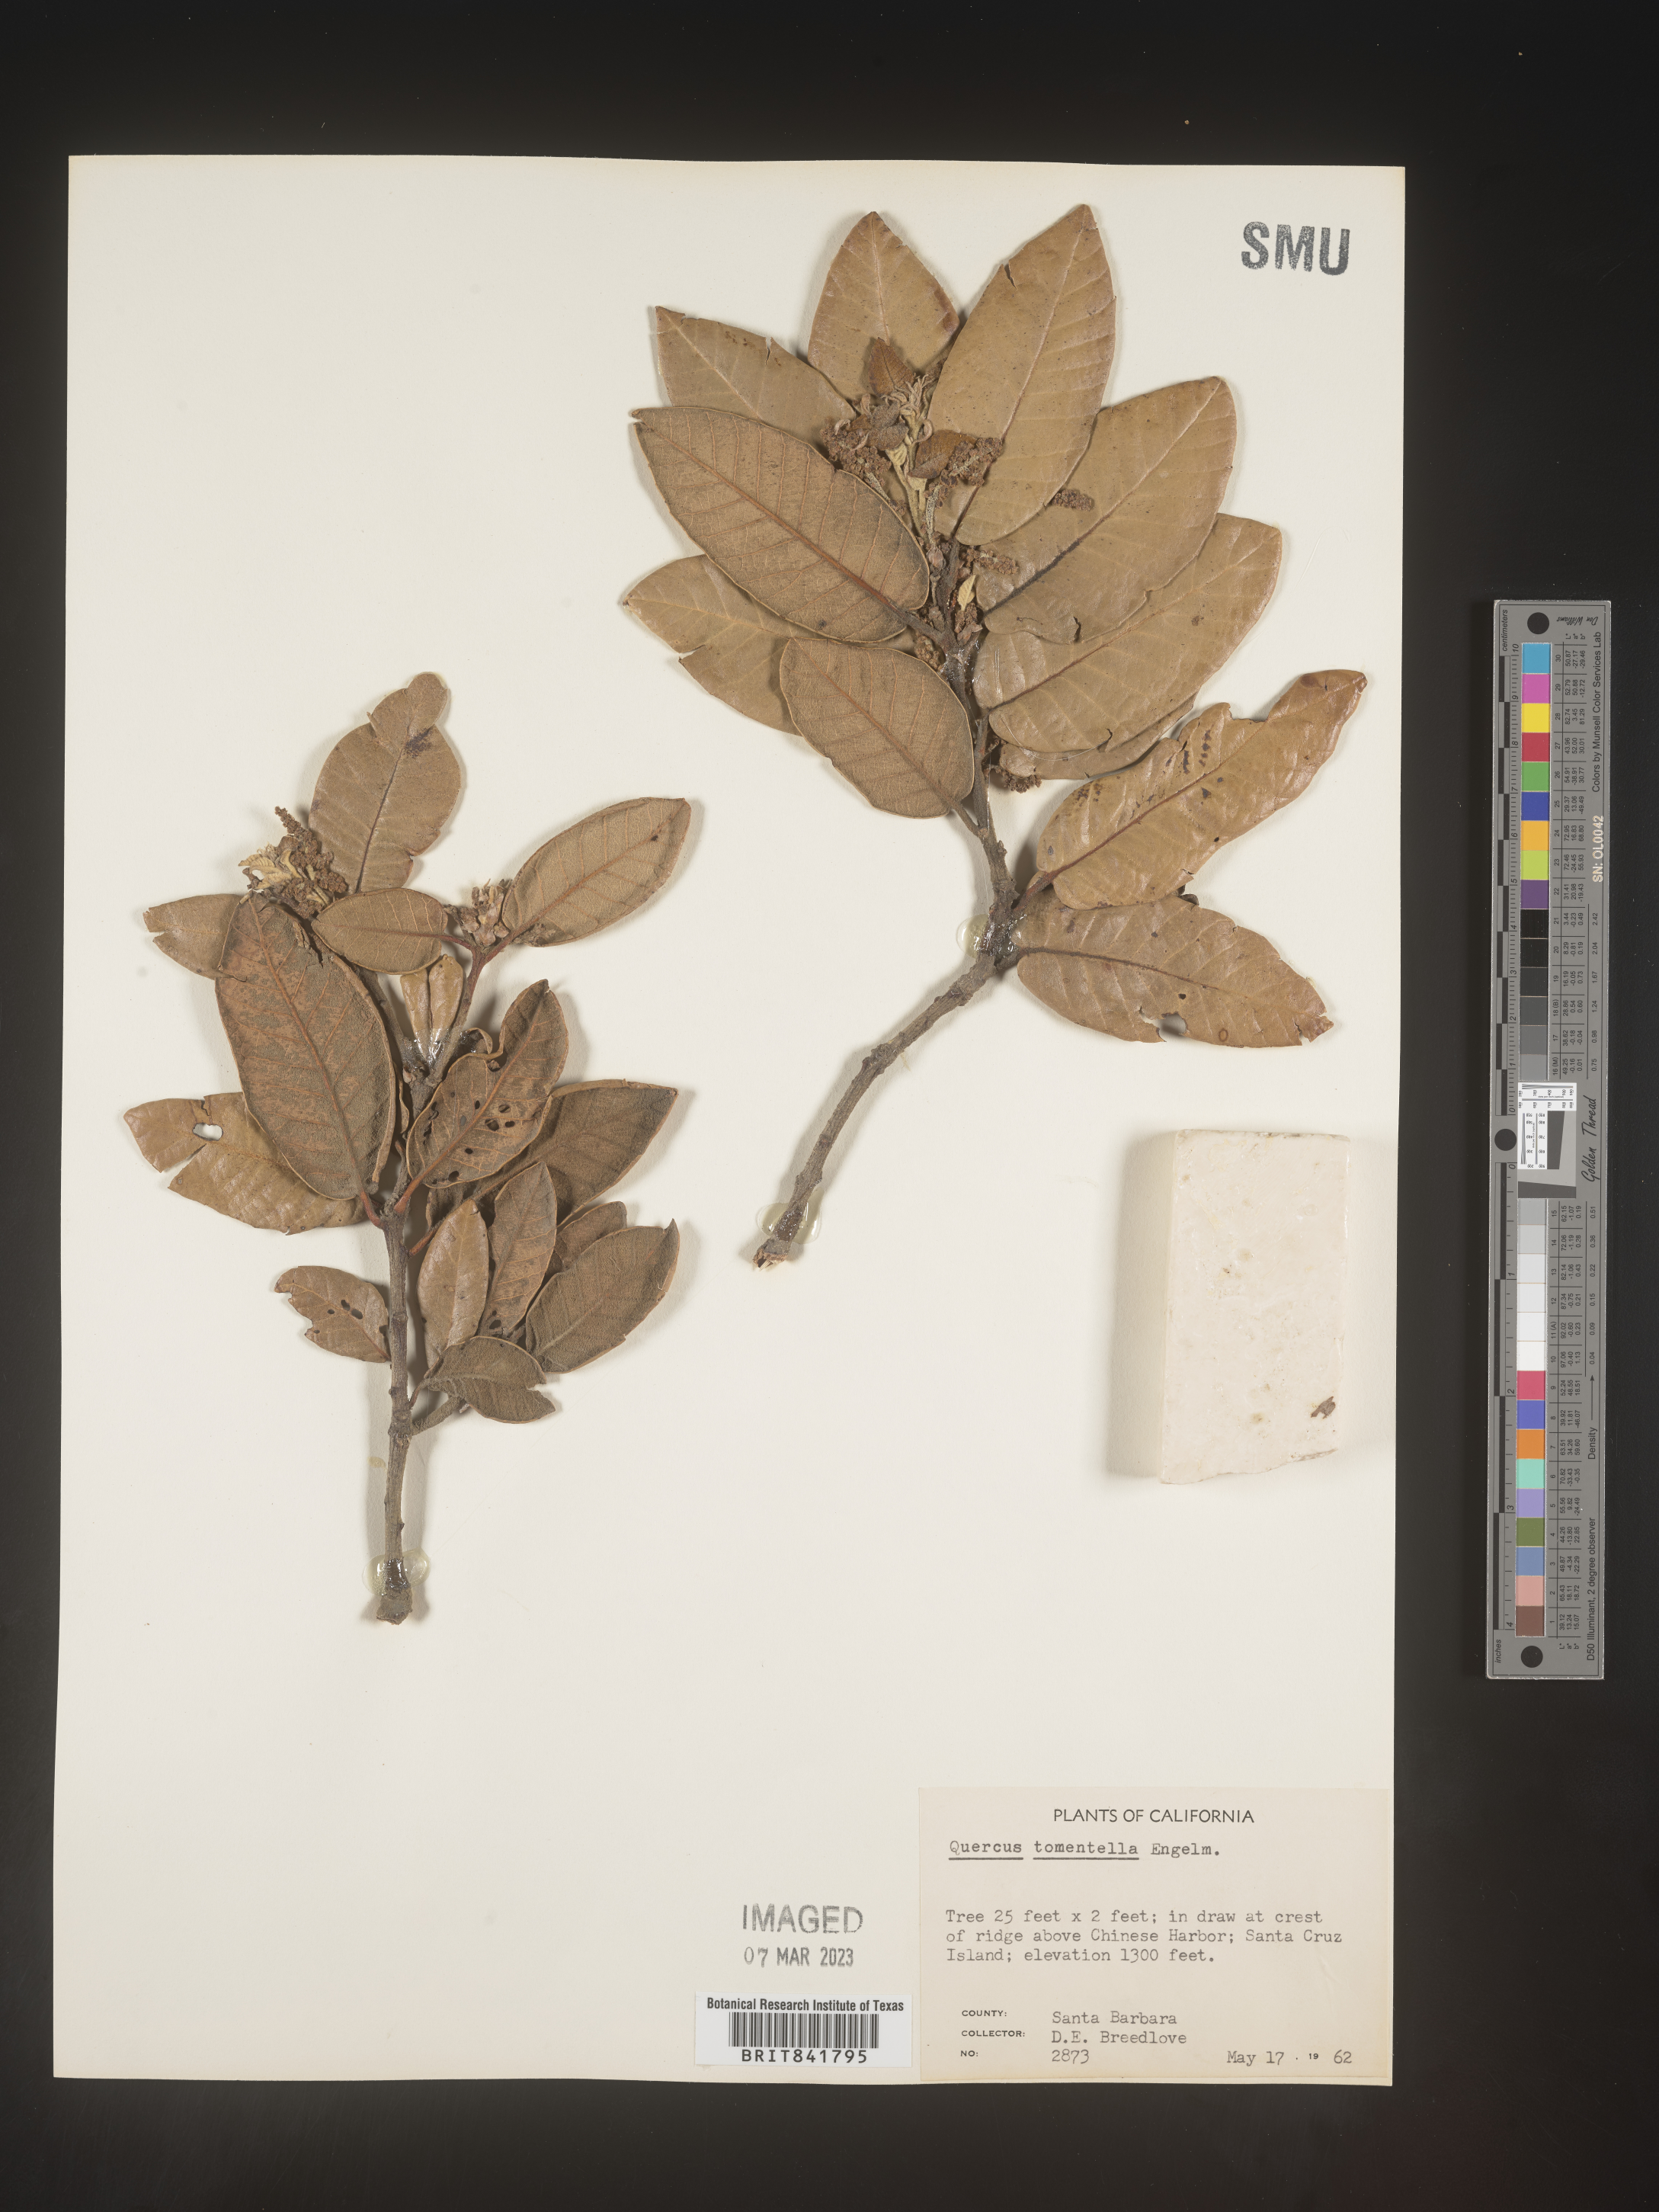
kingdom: Plantae
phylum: Tracheophyta
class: Magnoliopsida
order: Fagales
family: Fagaceae
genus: Quercus
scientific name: Quercus
